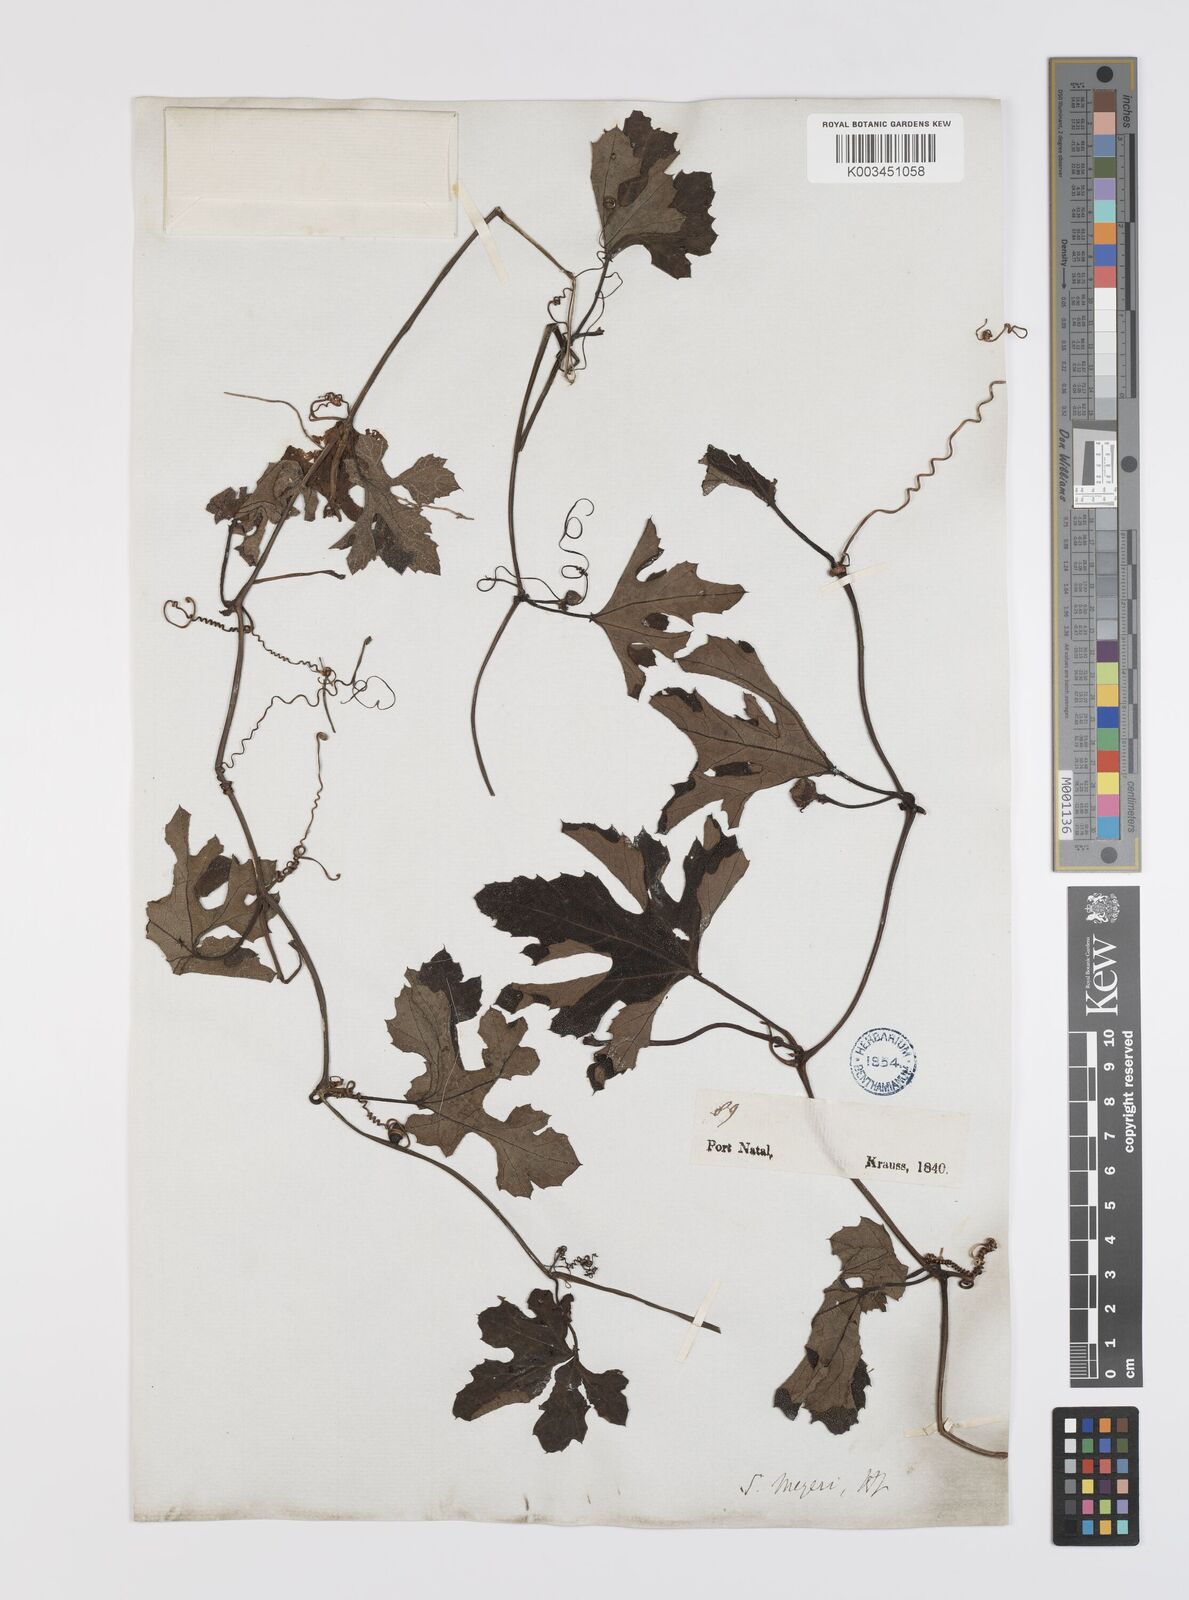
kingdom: Plantae
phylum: Tracheophyta
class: Magnoliopsida
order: Cucurbitales
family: Cucurbitaceae
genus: Lagenaria
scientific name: Lagenaria sphaerica
